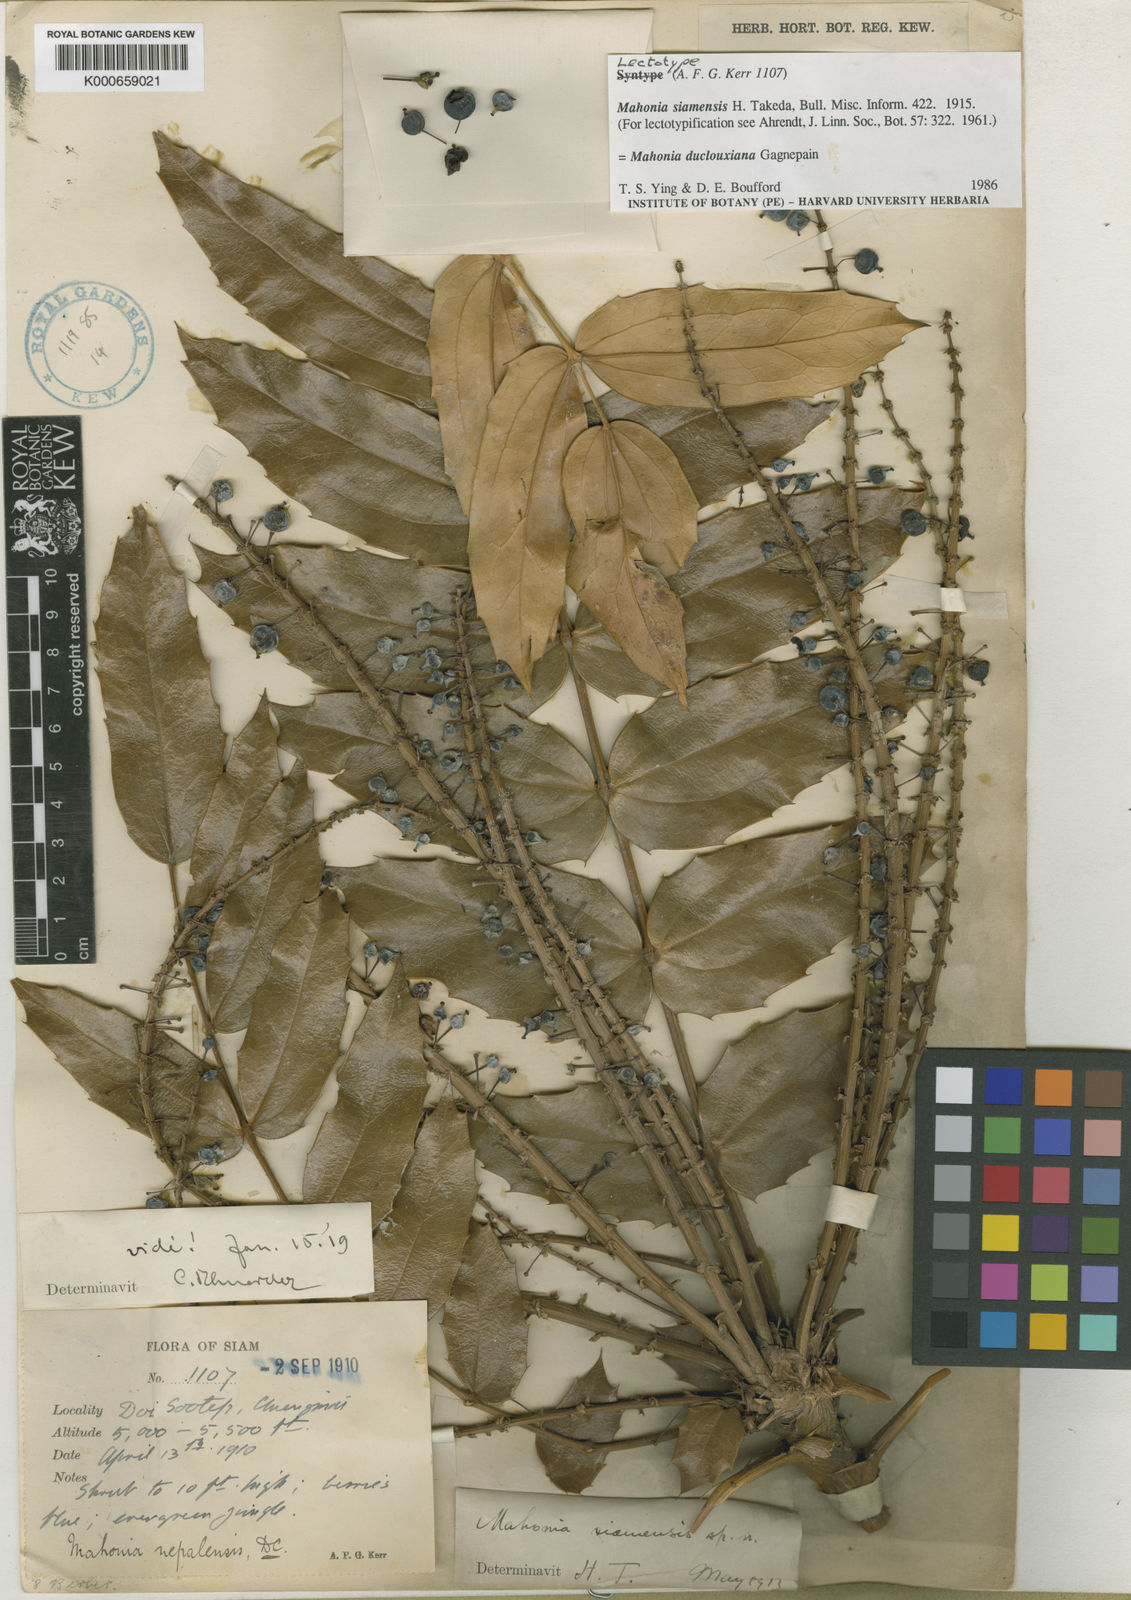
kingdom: Plantae
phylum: Tracheophyta
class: Magnoliopsida
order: Ranunculales
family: Berberidaceae
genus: Mahonia
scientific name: Mahonia napaulensis
